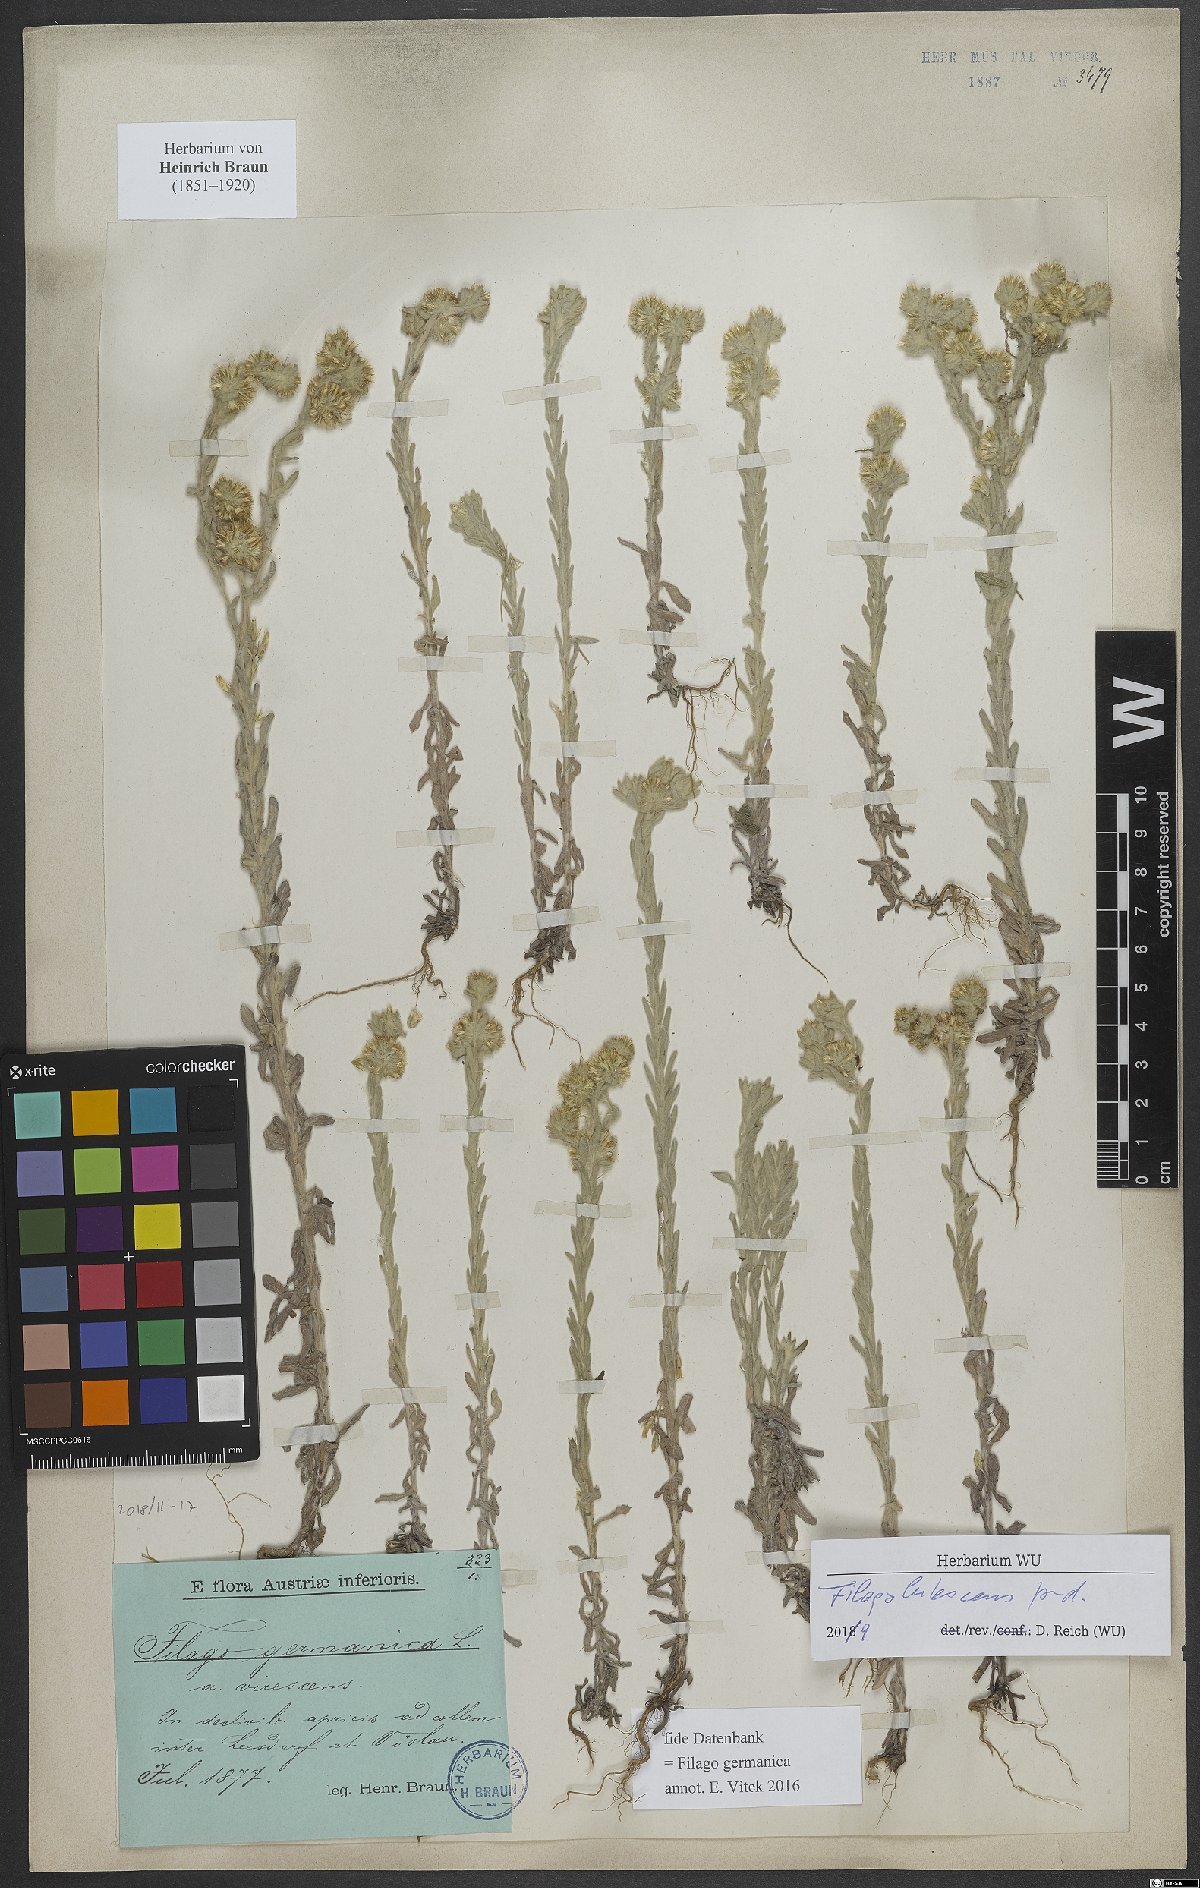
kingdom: Plantae
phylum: Tracheophyta
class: Magnoliopsida
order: Asterales
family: Asteraceae
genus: Filago
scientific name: Filago lutescens
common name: Red-tipped cudweed
